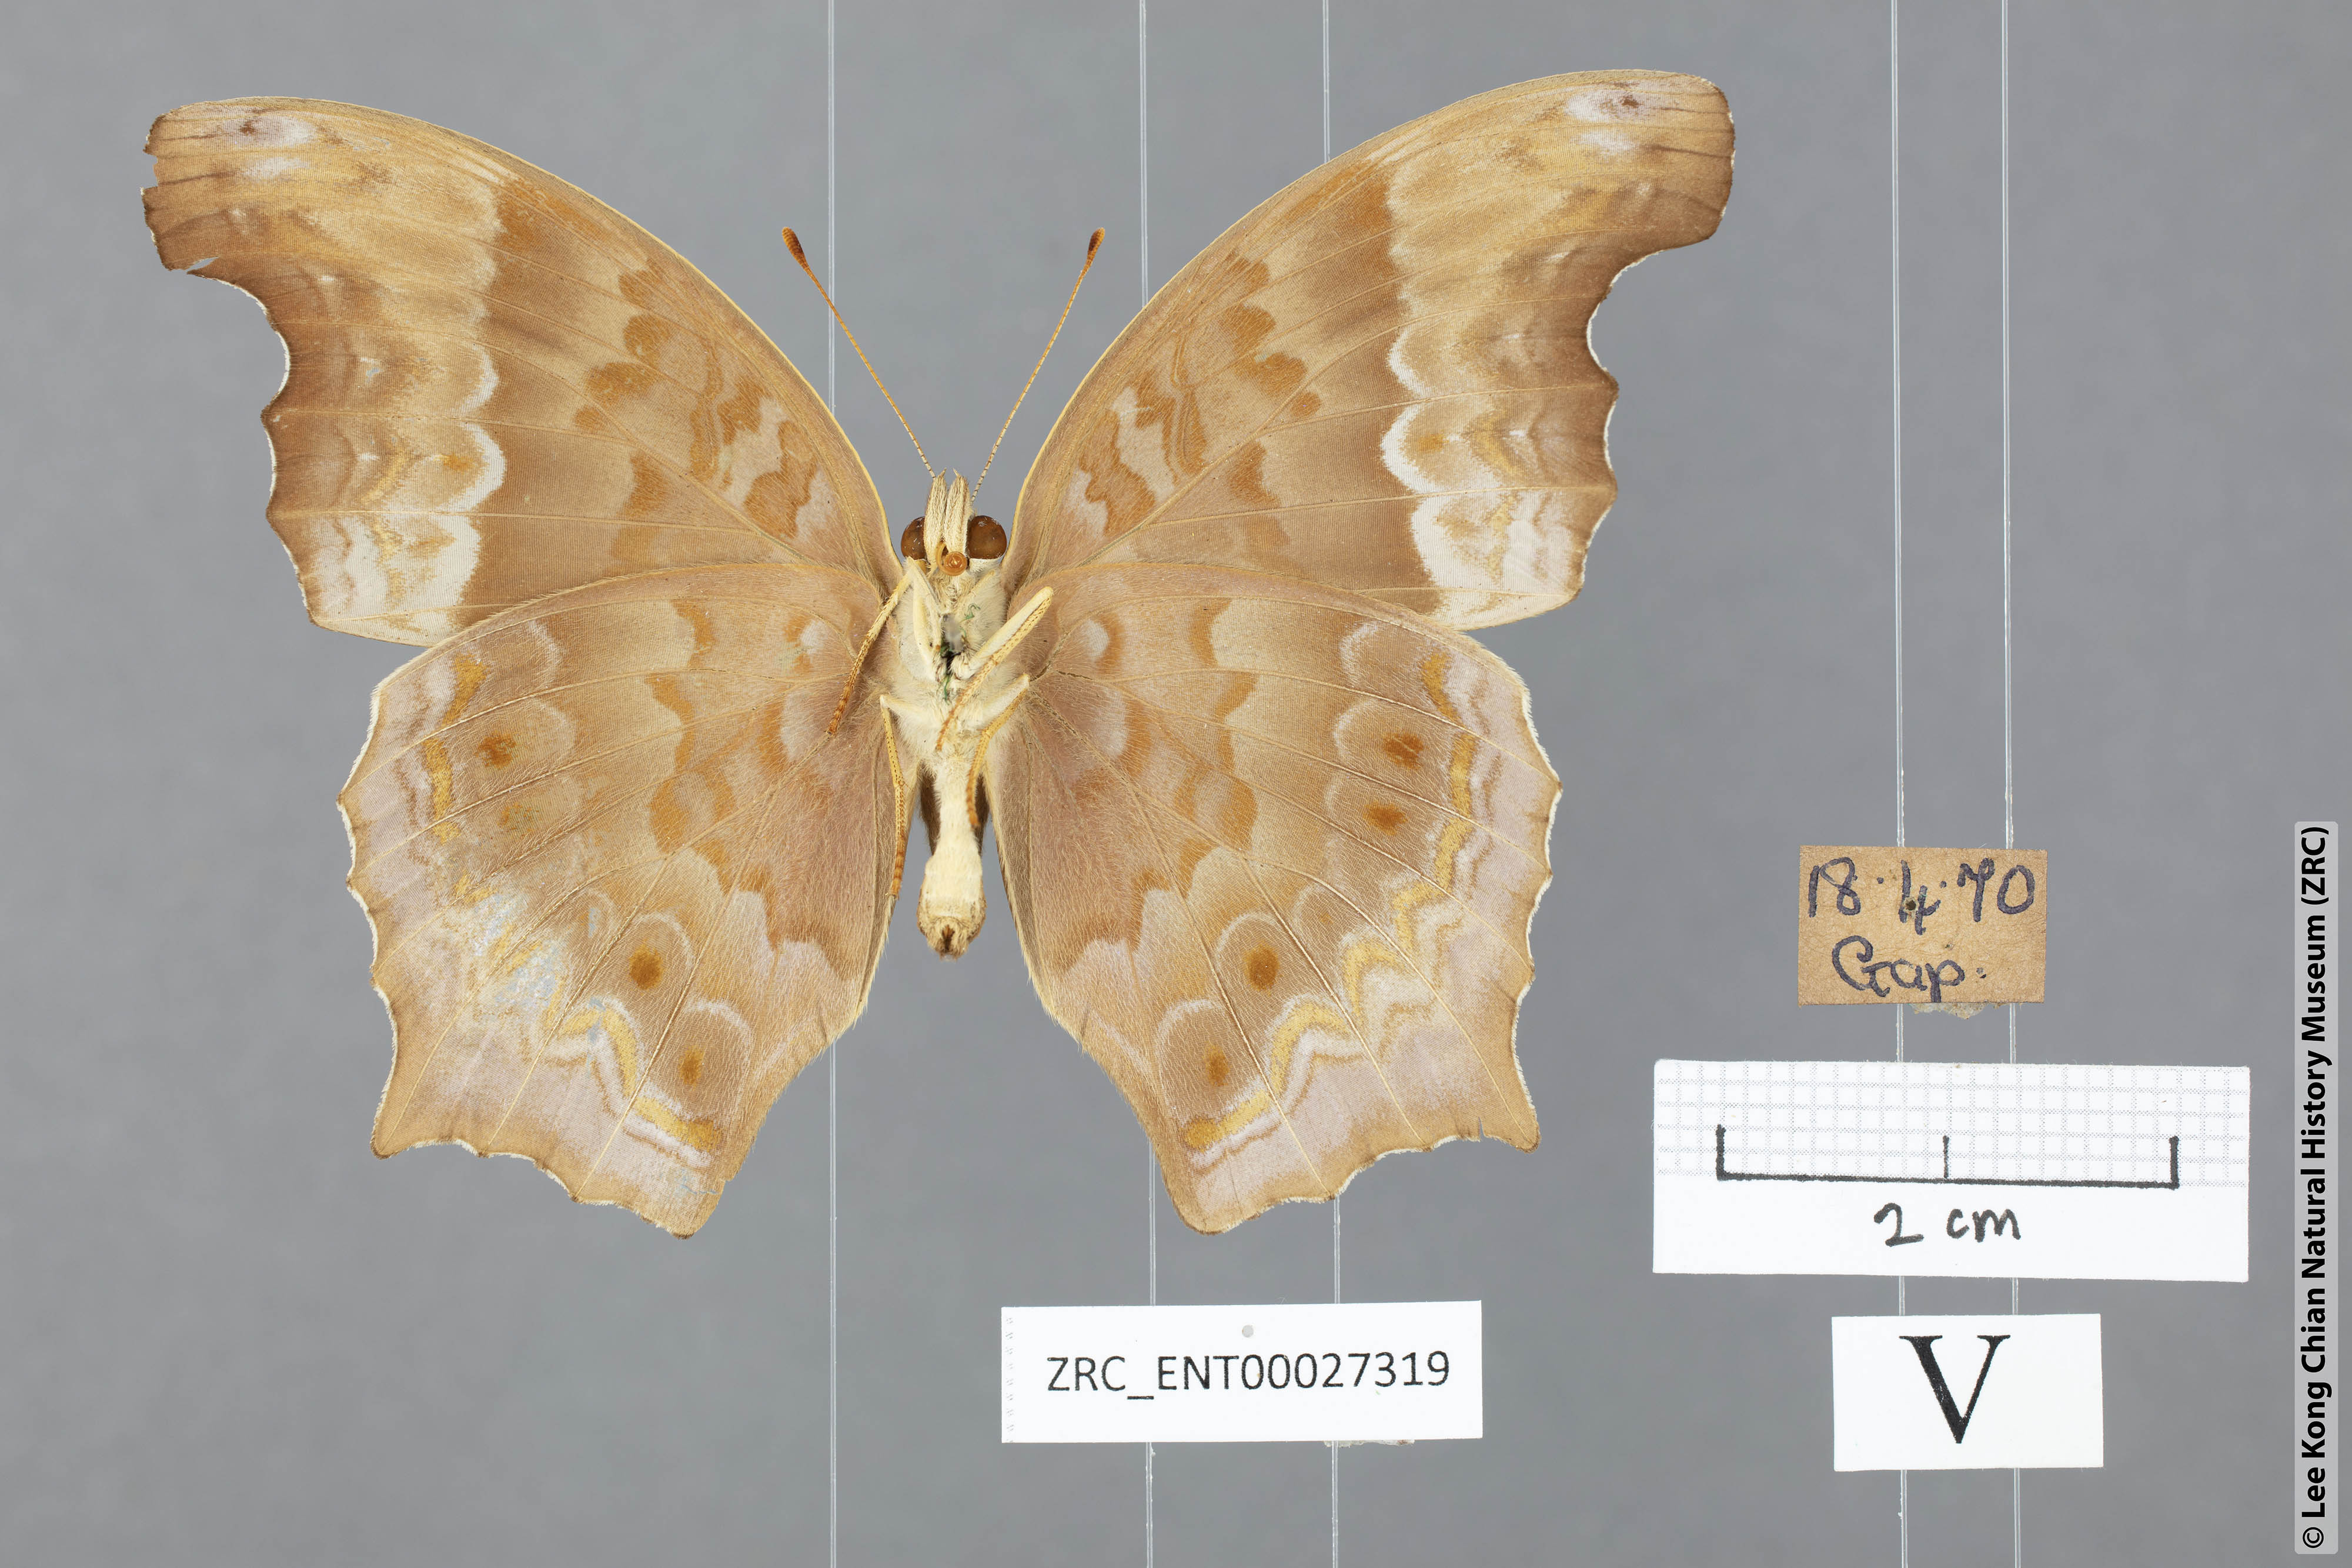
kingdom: Animalia
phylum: Arthropoda
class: Insecta
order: Lepidoptera
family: Nymphalidae
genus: Terinos
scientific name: Terinos atlita
